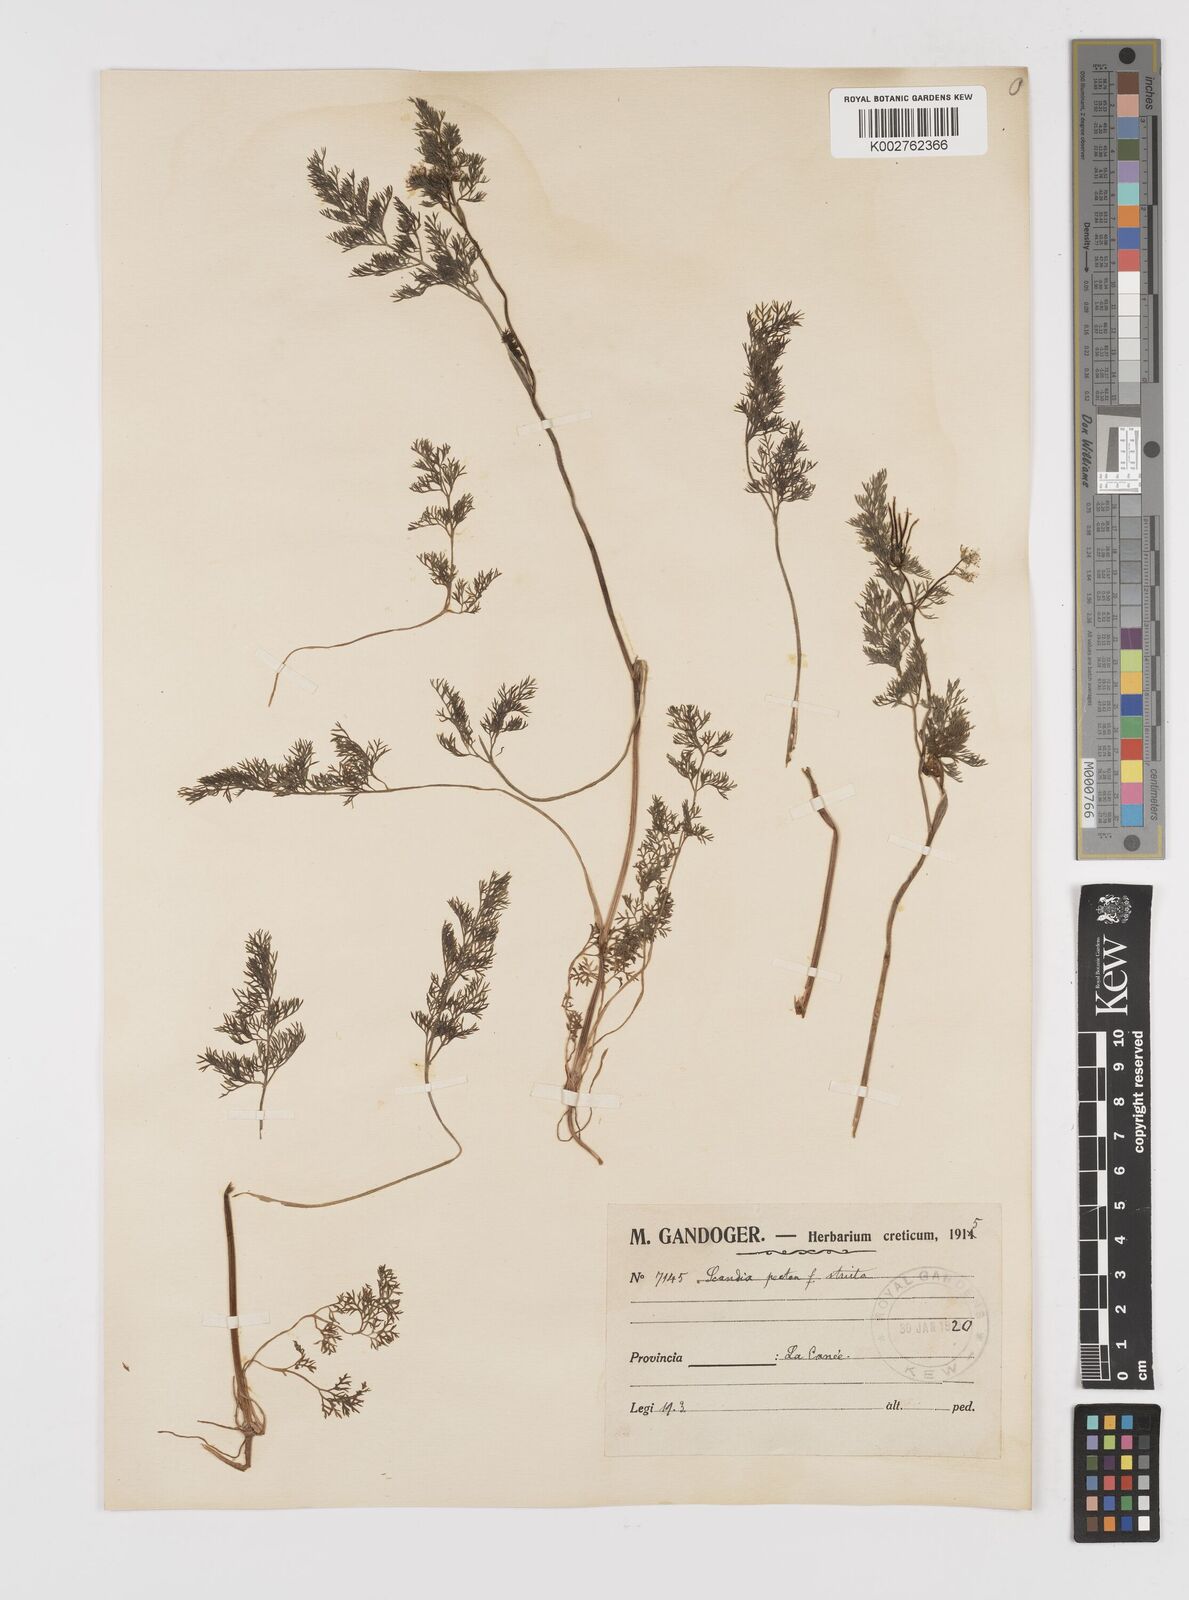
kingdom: Plantae
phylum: Tracheophyta
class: Magnoliopsida
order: Apiales
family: Apiaceae
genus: Scandix
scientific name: Scandix pecten-veneris
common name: Shepherd's-needle
